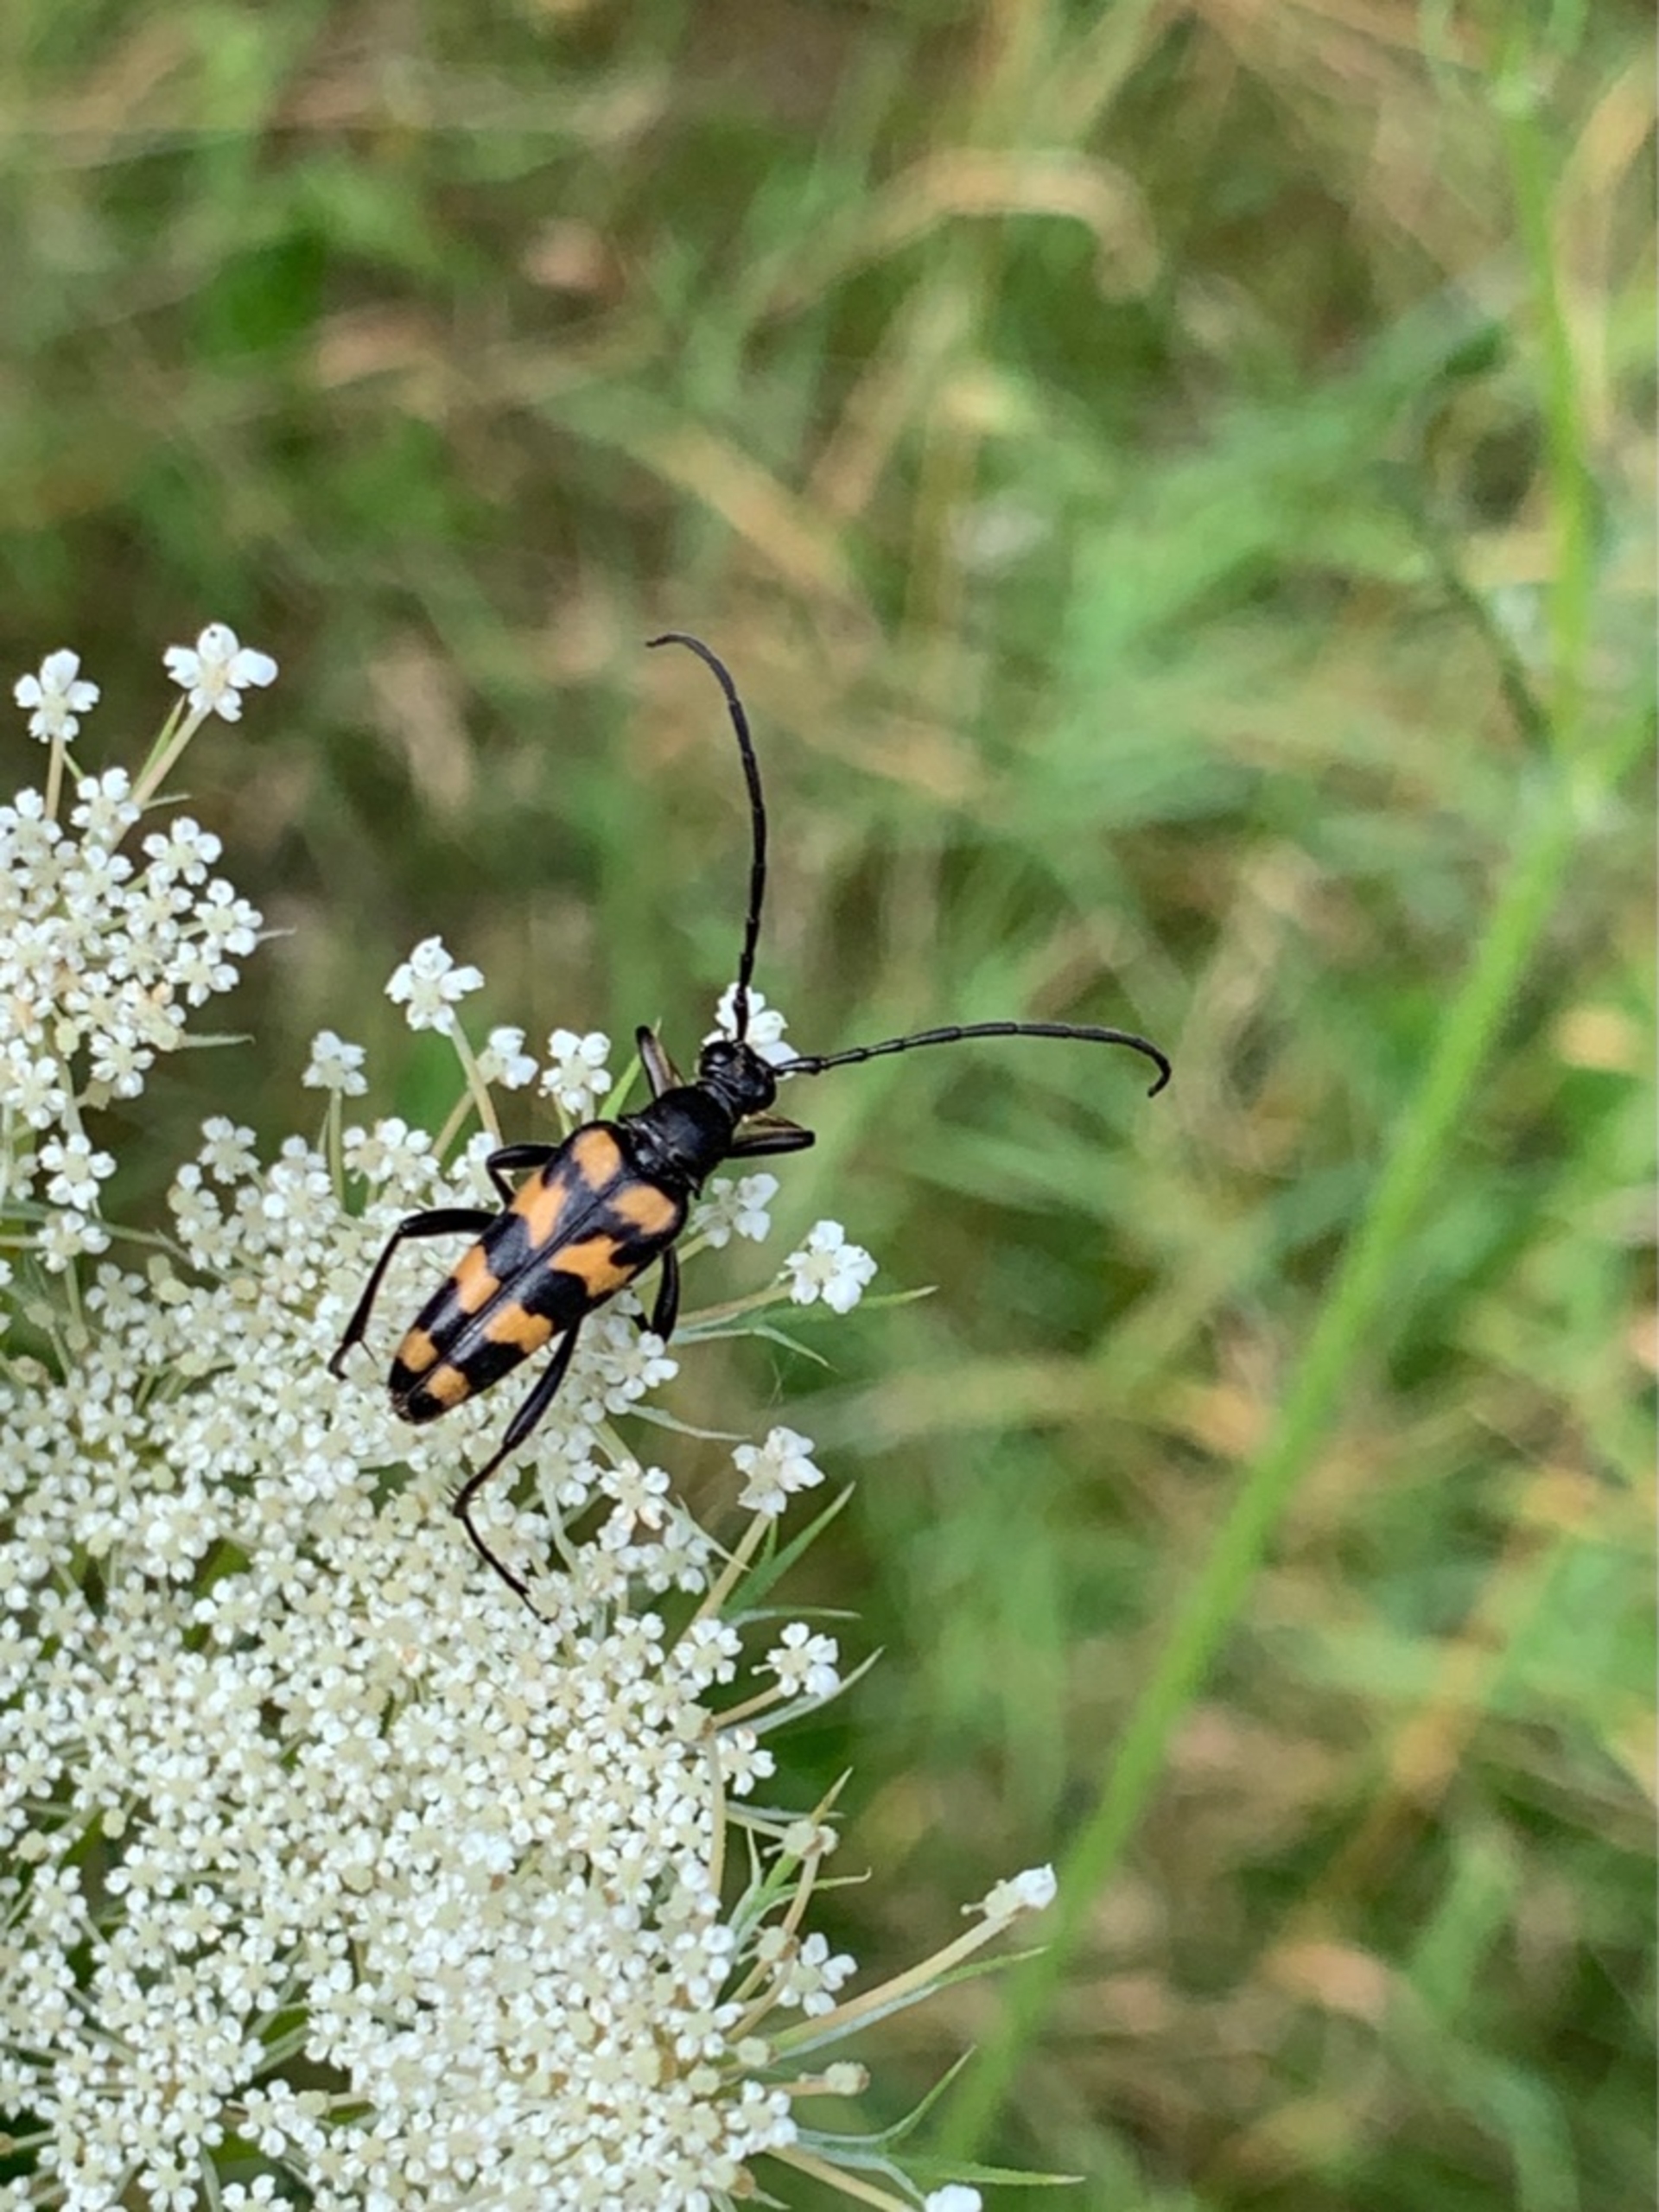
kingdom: Animalia
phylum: Arthropoda
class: Insecta
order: Coleoptera
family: Cerambycidae
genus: Leptura
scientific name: Leptura quadrifasciata
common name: Firebåndet blomsterbuk
